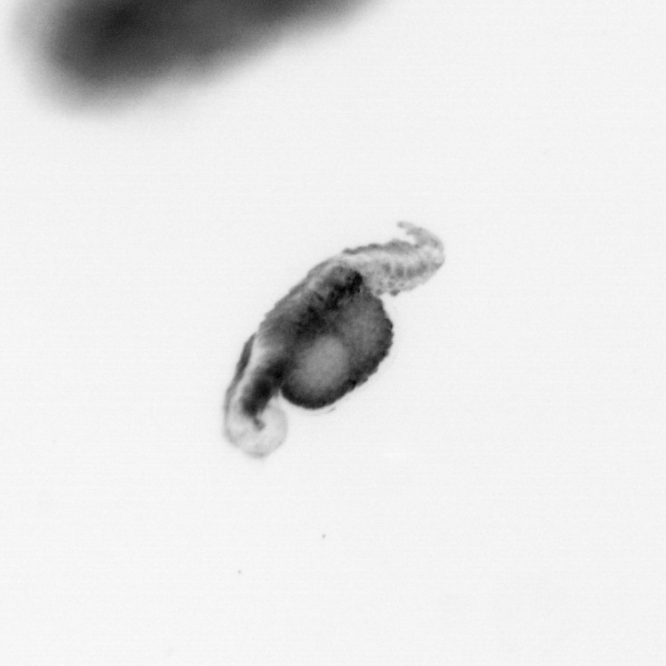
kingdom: Animalia
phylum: Annelida
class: Polychaeta
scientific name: Polychaeta
